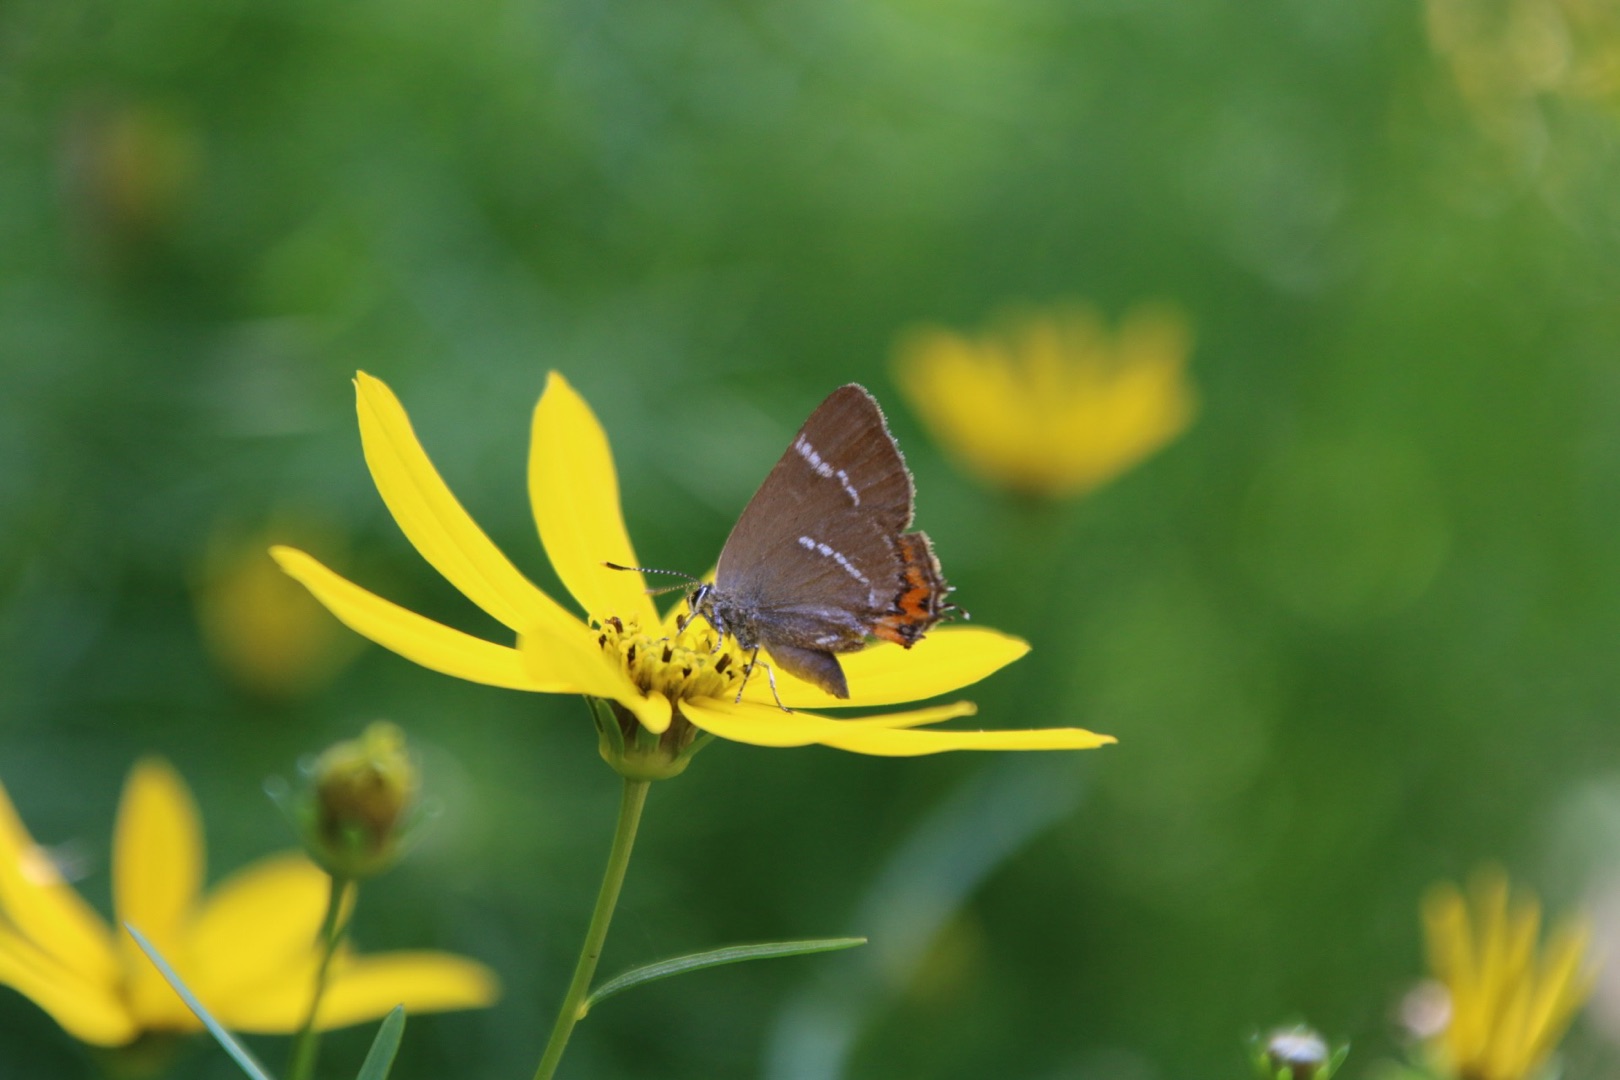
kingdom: Animalia
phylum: Arthropoda
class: Insecta
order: Lepidoptera
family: Lycaenidae
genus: Satyrium
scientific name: Satyrium w-album
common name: Det hvide W
